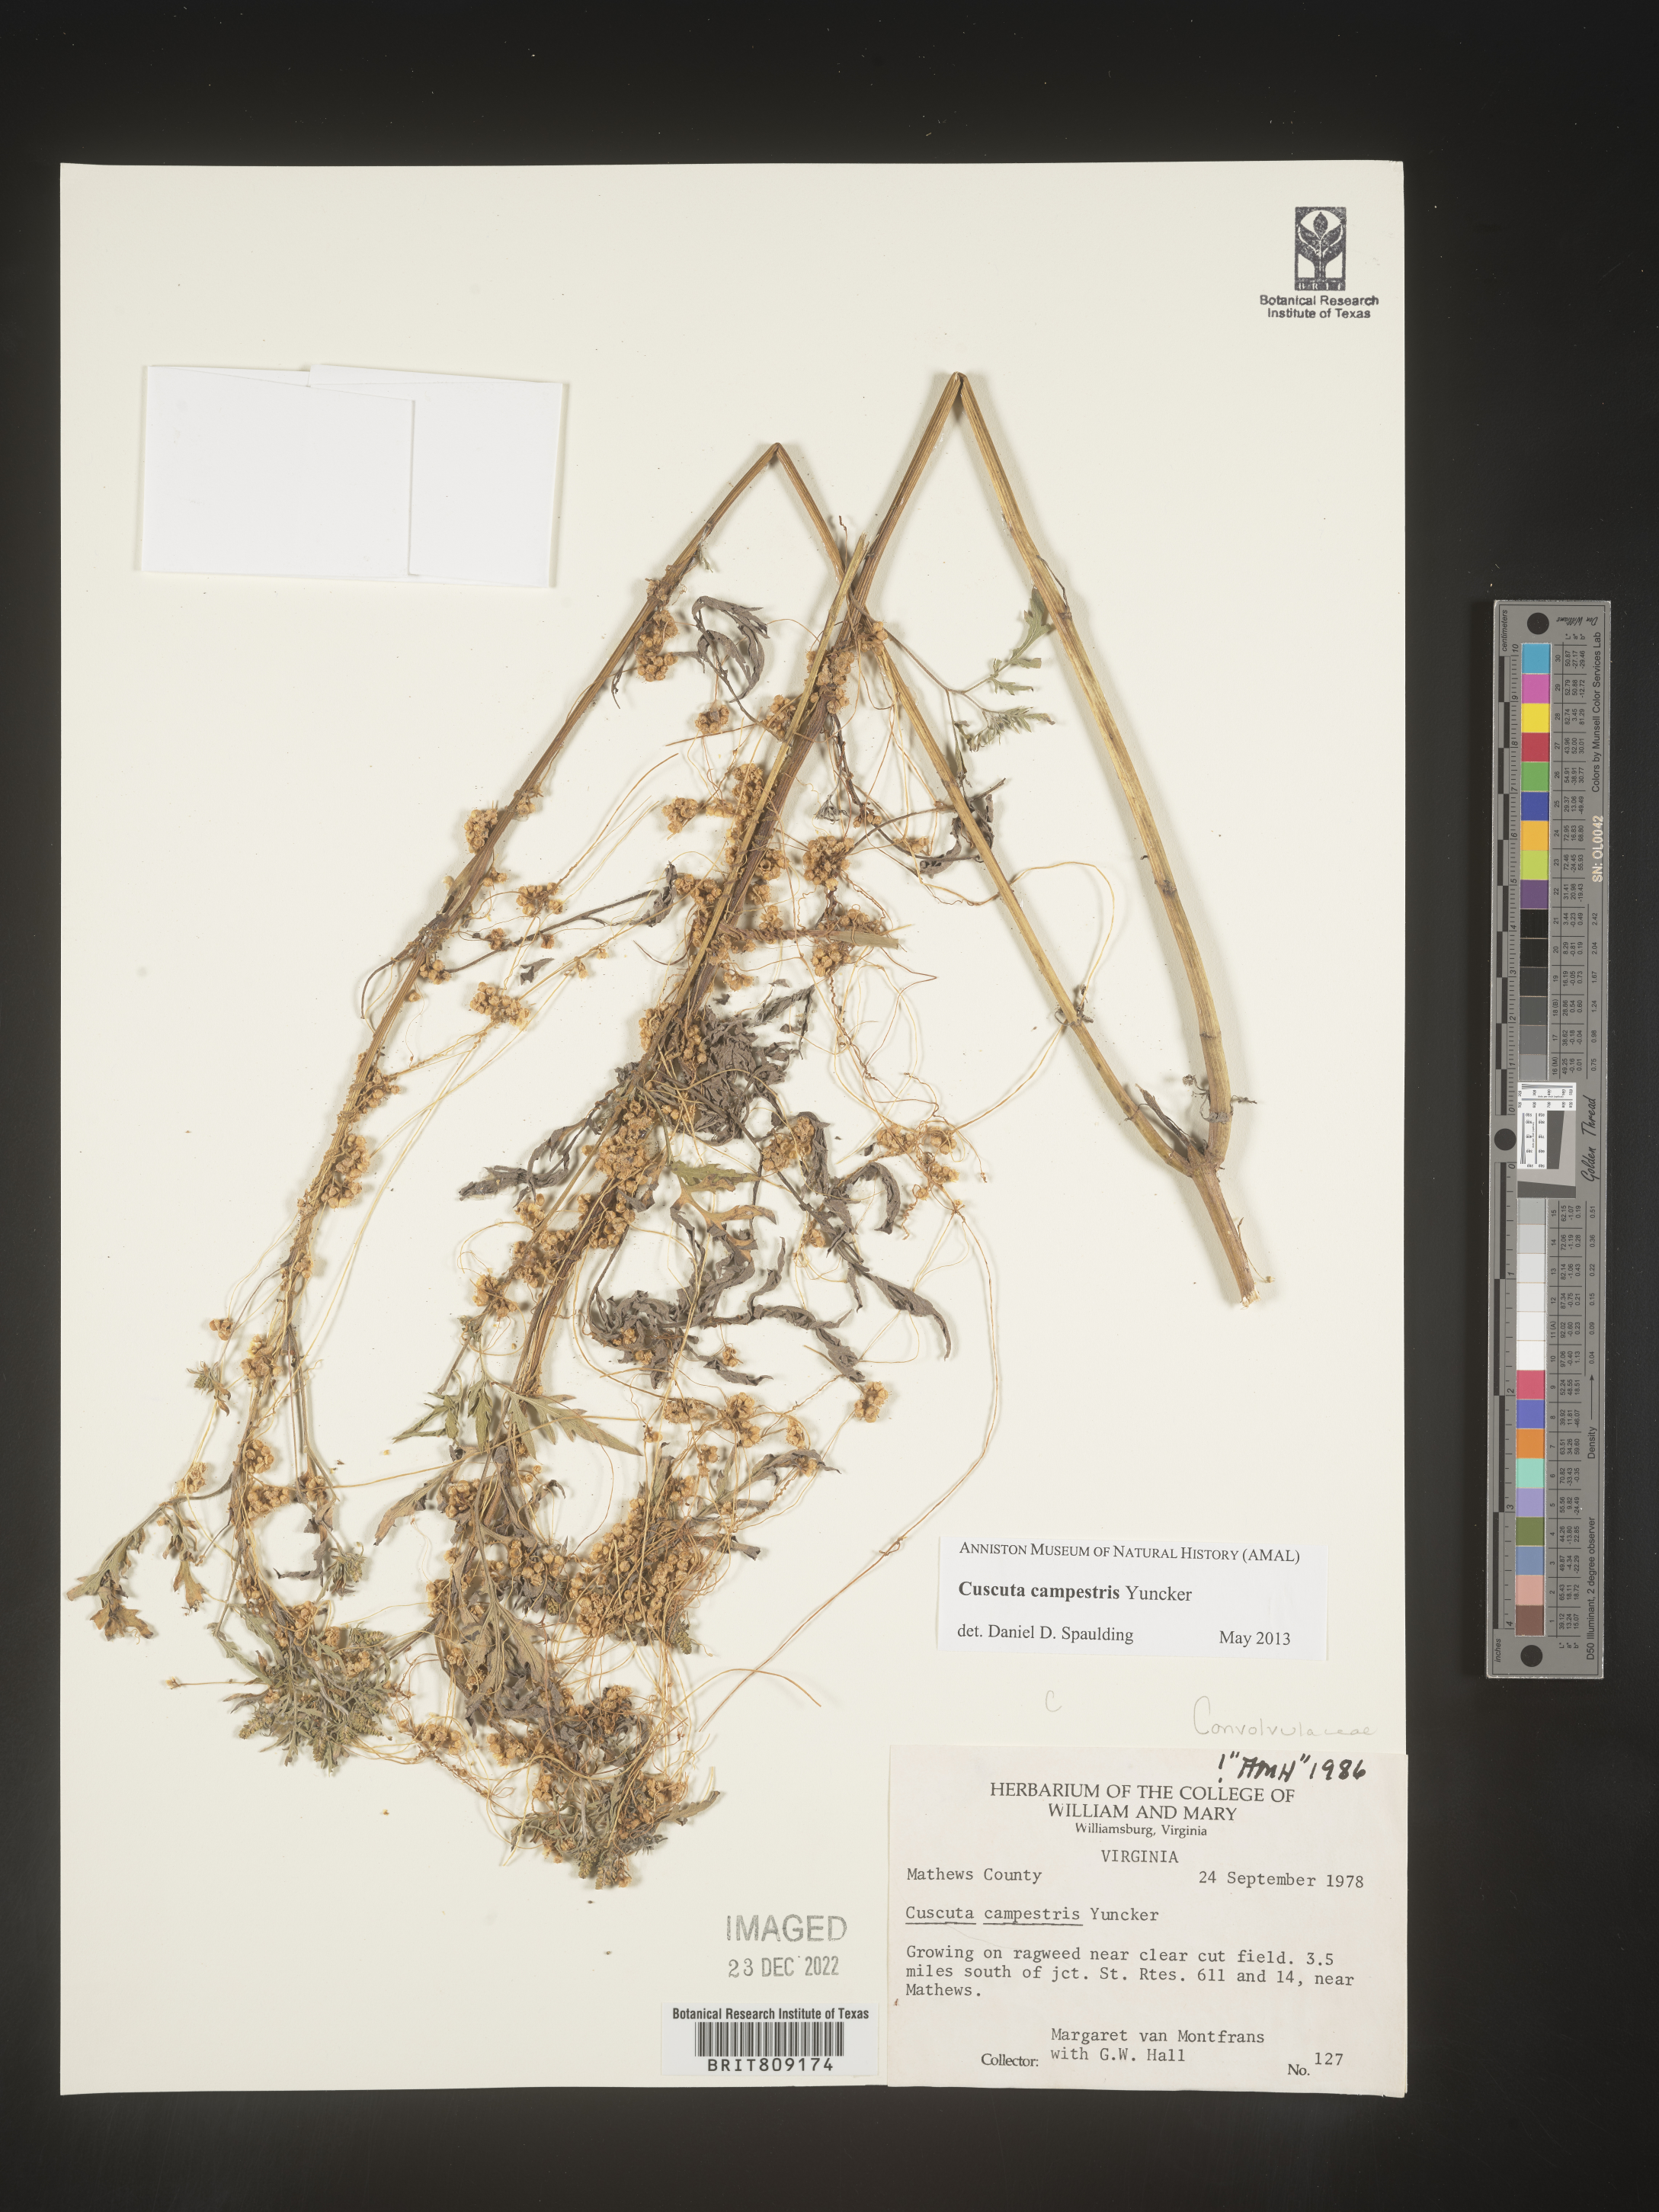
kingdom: Plantae
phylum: Tracheophyta
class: Magnoliopsida
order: Solanales
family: Convolvulaceae
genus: Cuscuta
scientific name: Cuscuta campestris
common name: Yellow dodder
